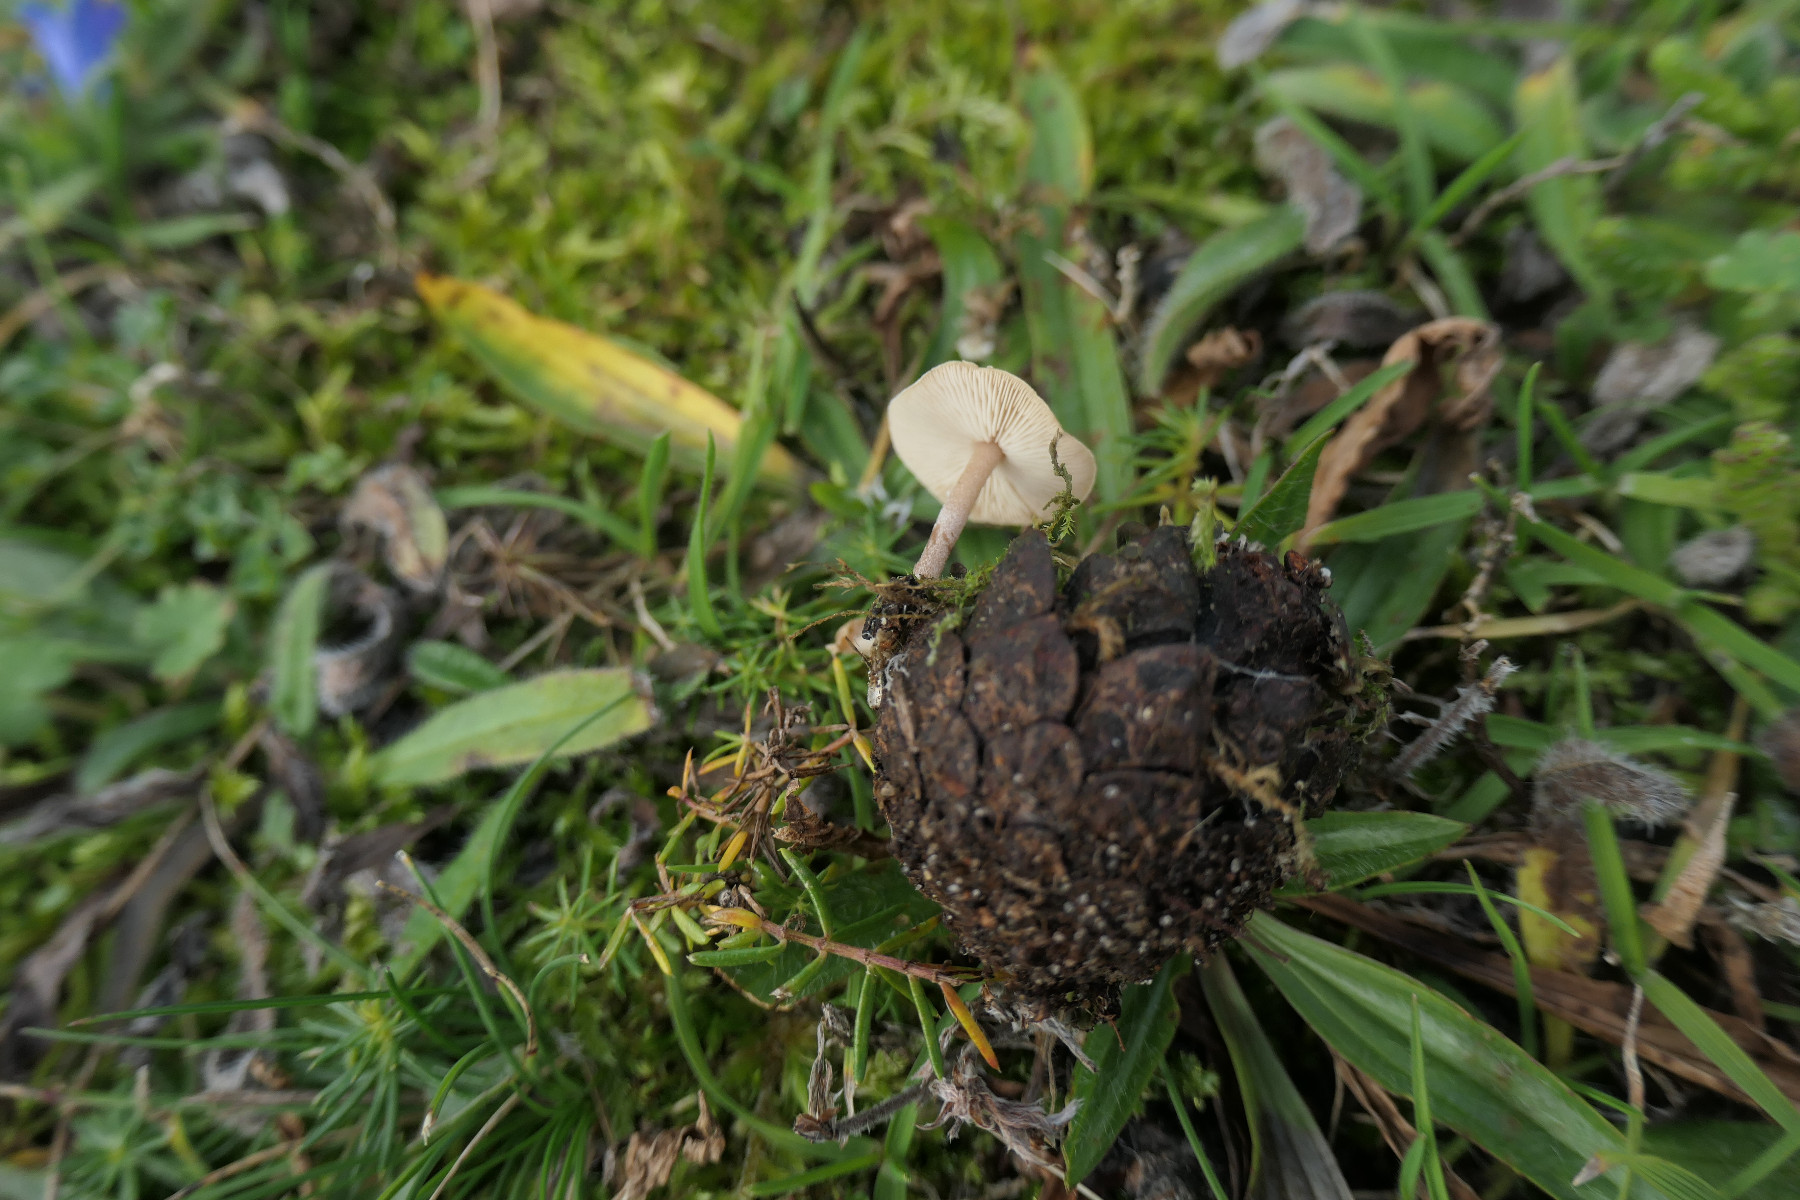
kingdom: Fungi
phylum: Basidiomycota
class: Agaricomycetes
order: Agaricales
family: Mycenaceae
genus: Mycena
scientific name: Mycena epipterygia
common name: gulstokket huesvamp
